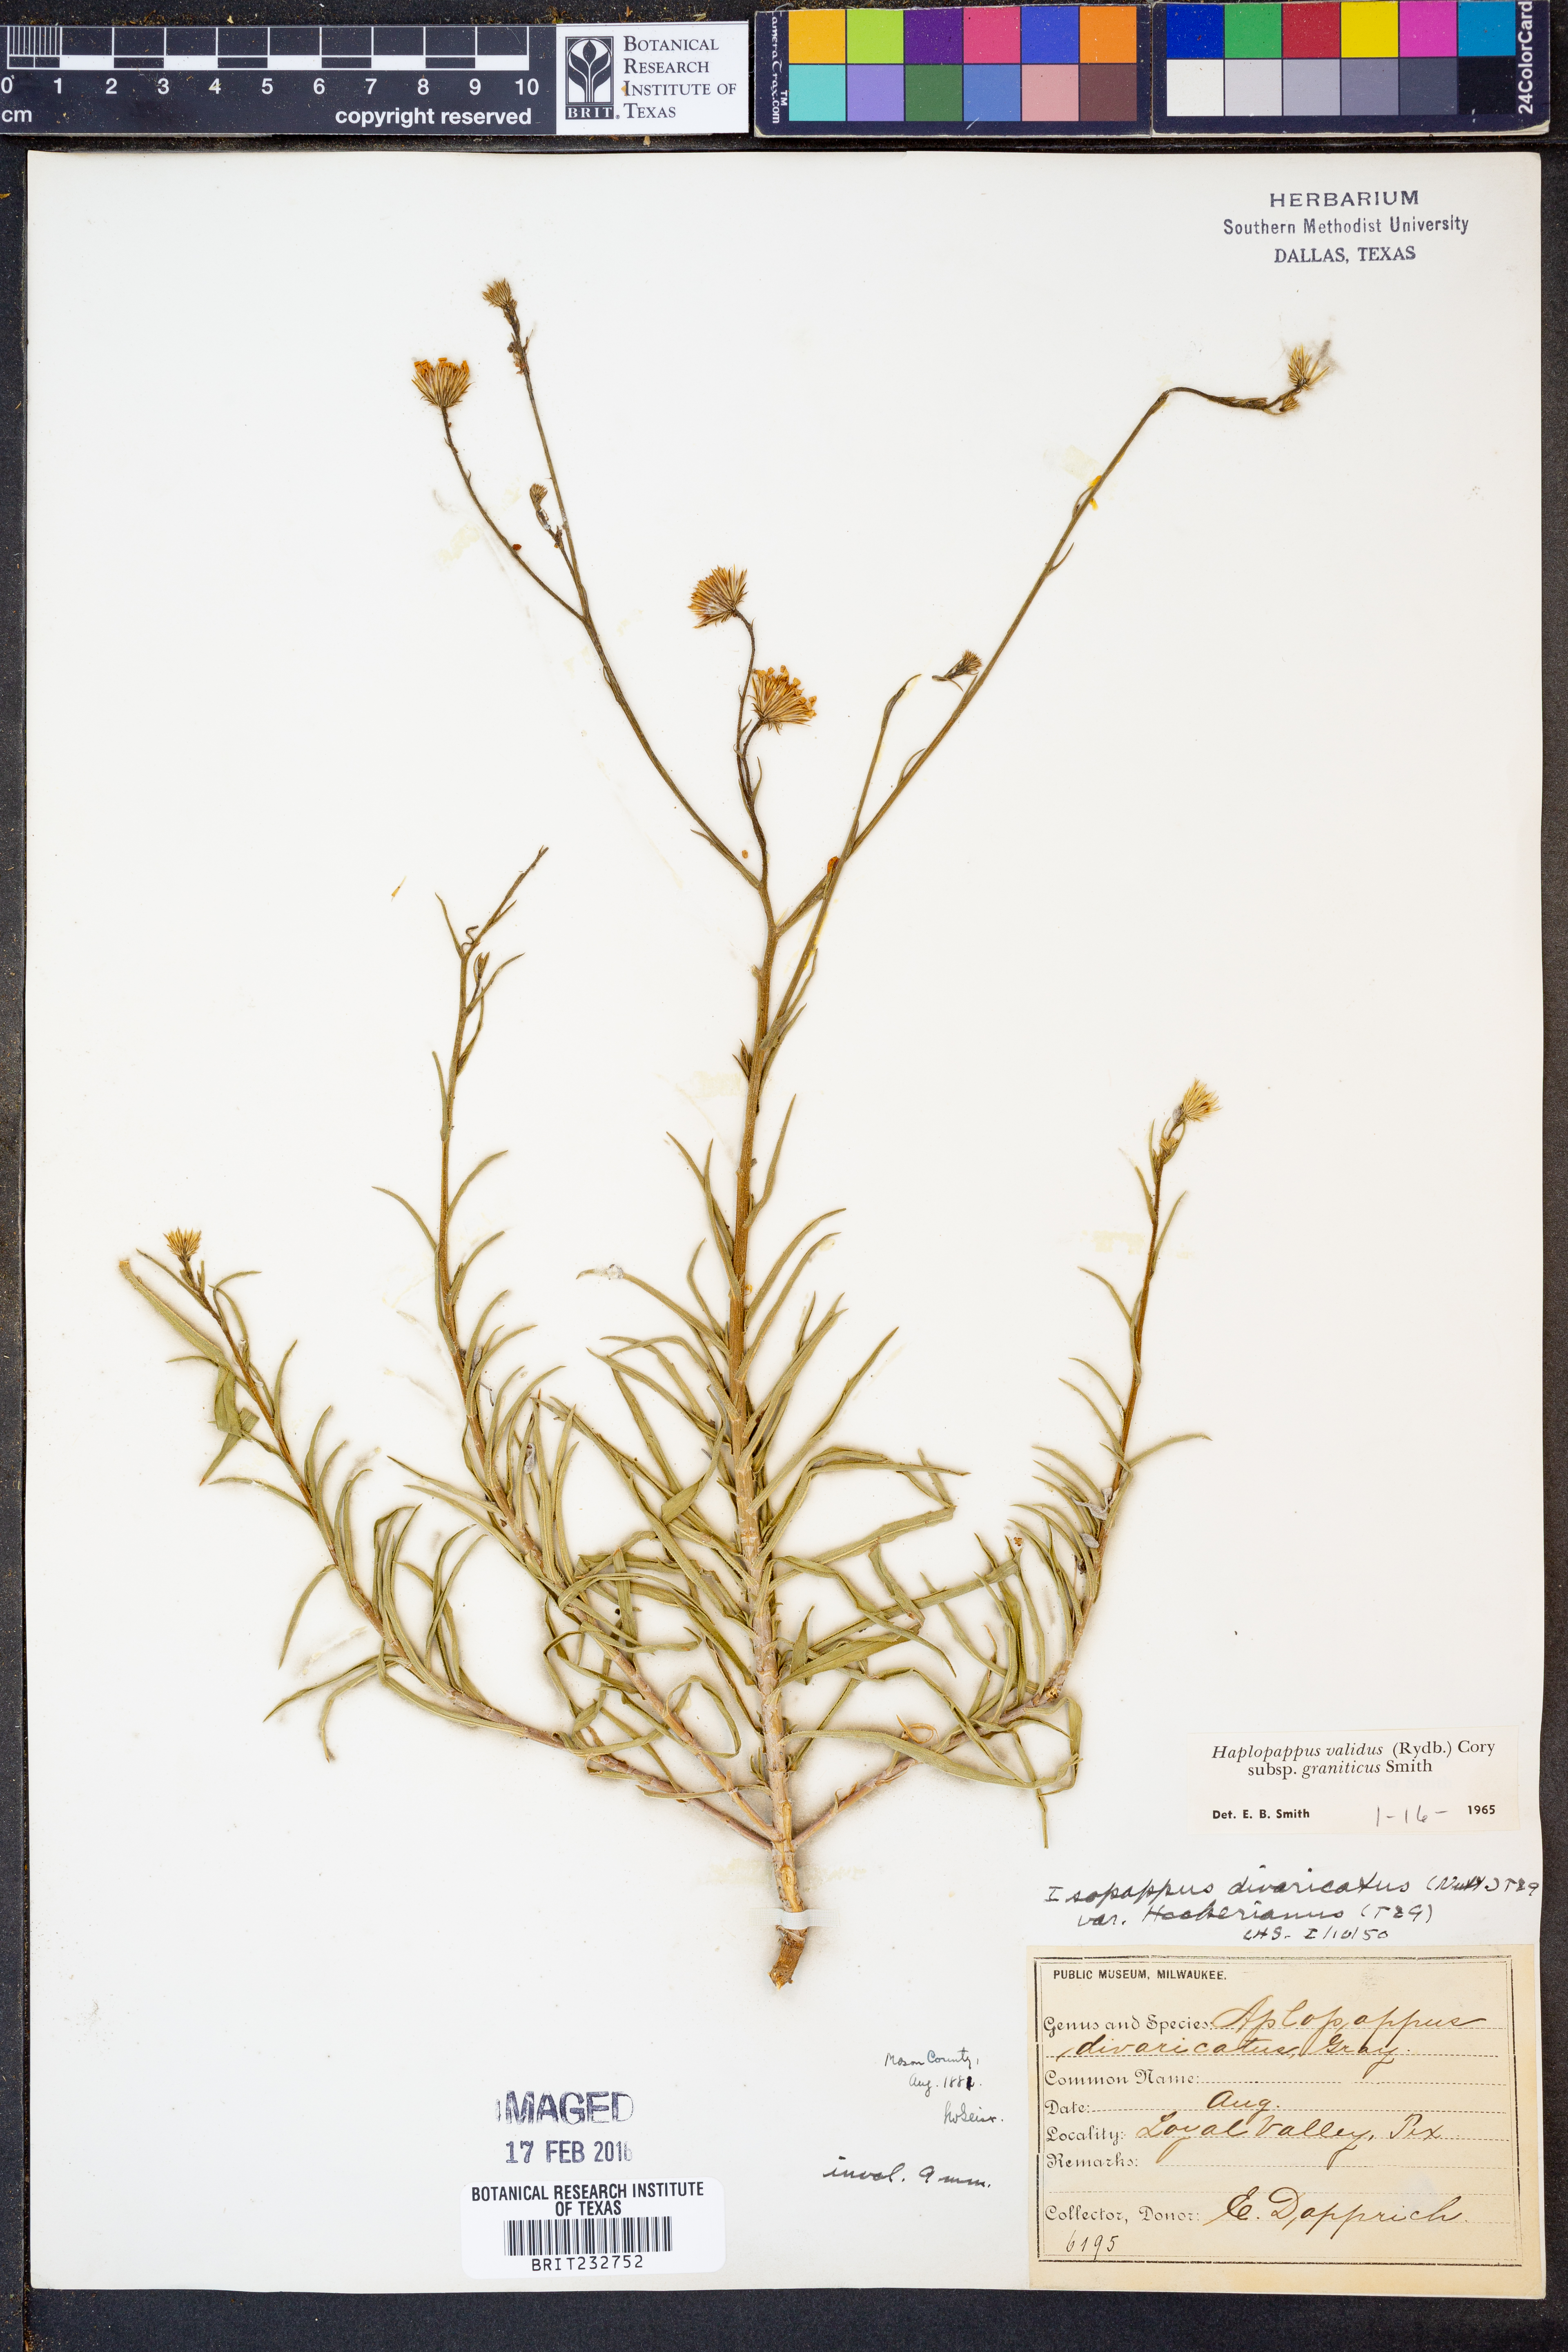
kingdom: Plantae
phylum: Tracheophyta
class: Magnoliopsida
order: Asterales
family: Asteraceae
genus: Croptilon
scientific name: Croptilon hookerianum
